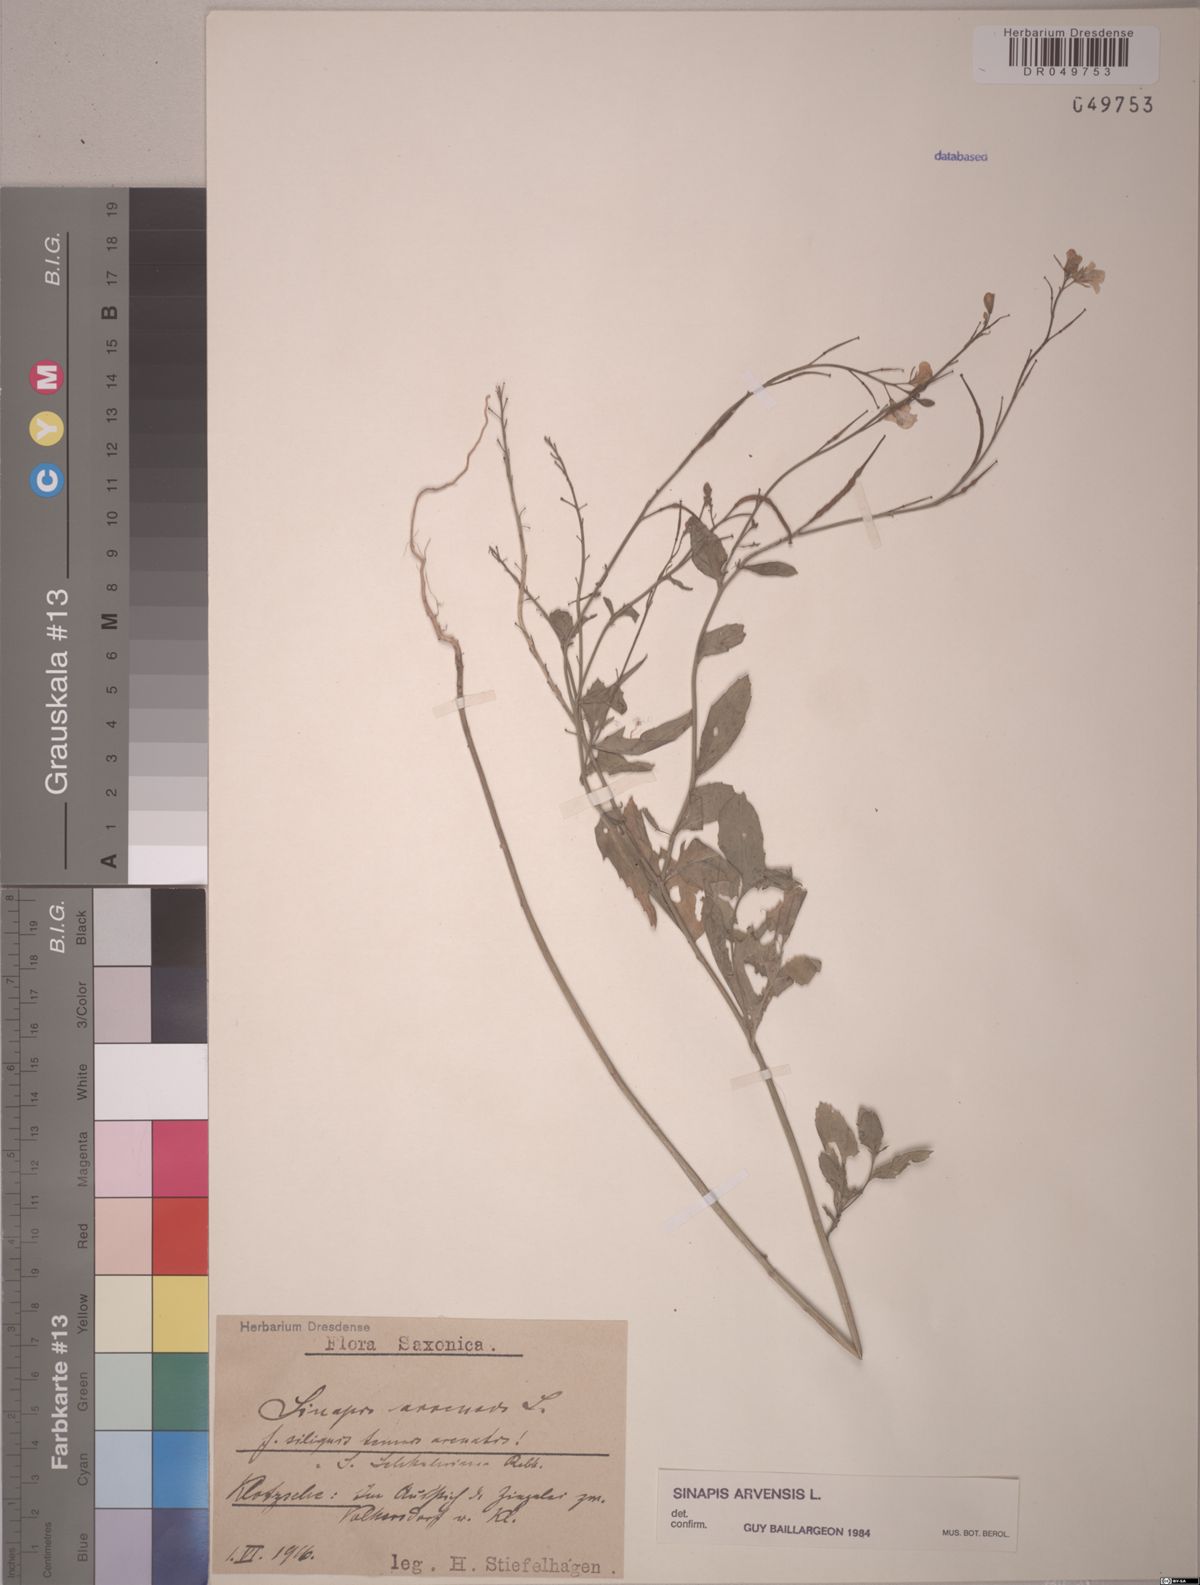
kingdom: Plantae
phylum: Tracheophyta
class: Magnoliopsida
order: Brassicales
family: Brassicaceae
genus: Sinapis
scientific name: Sinapis arvensis
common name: Charlock
